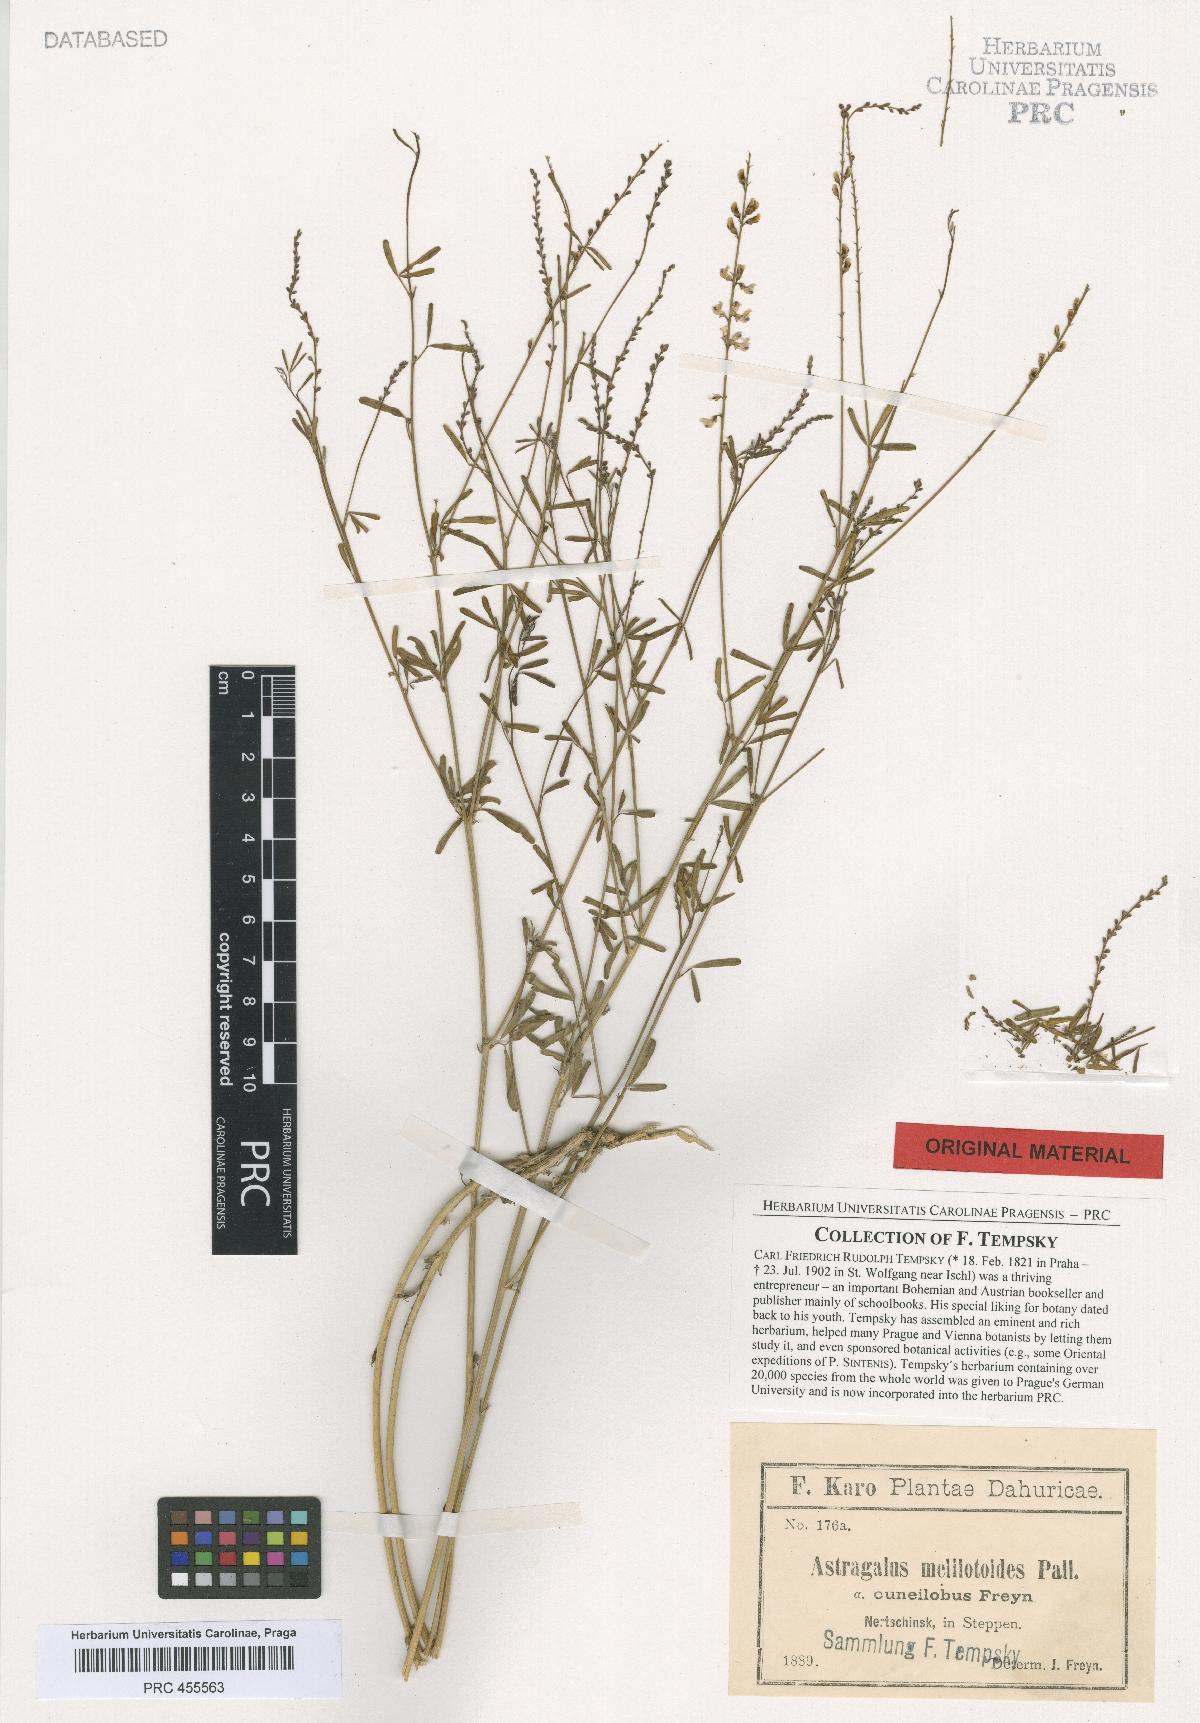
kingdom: Plantae
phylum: Tracheophyta
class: Magnoliopsida
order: Fabales
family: Fabaceae
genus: Astragalus
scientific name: Astragalus melilotoides
